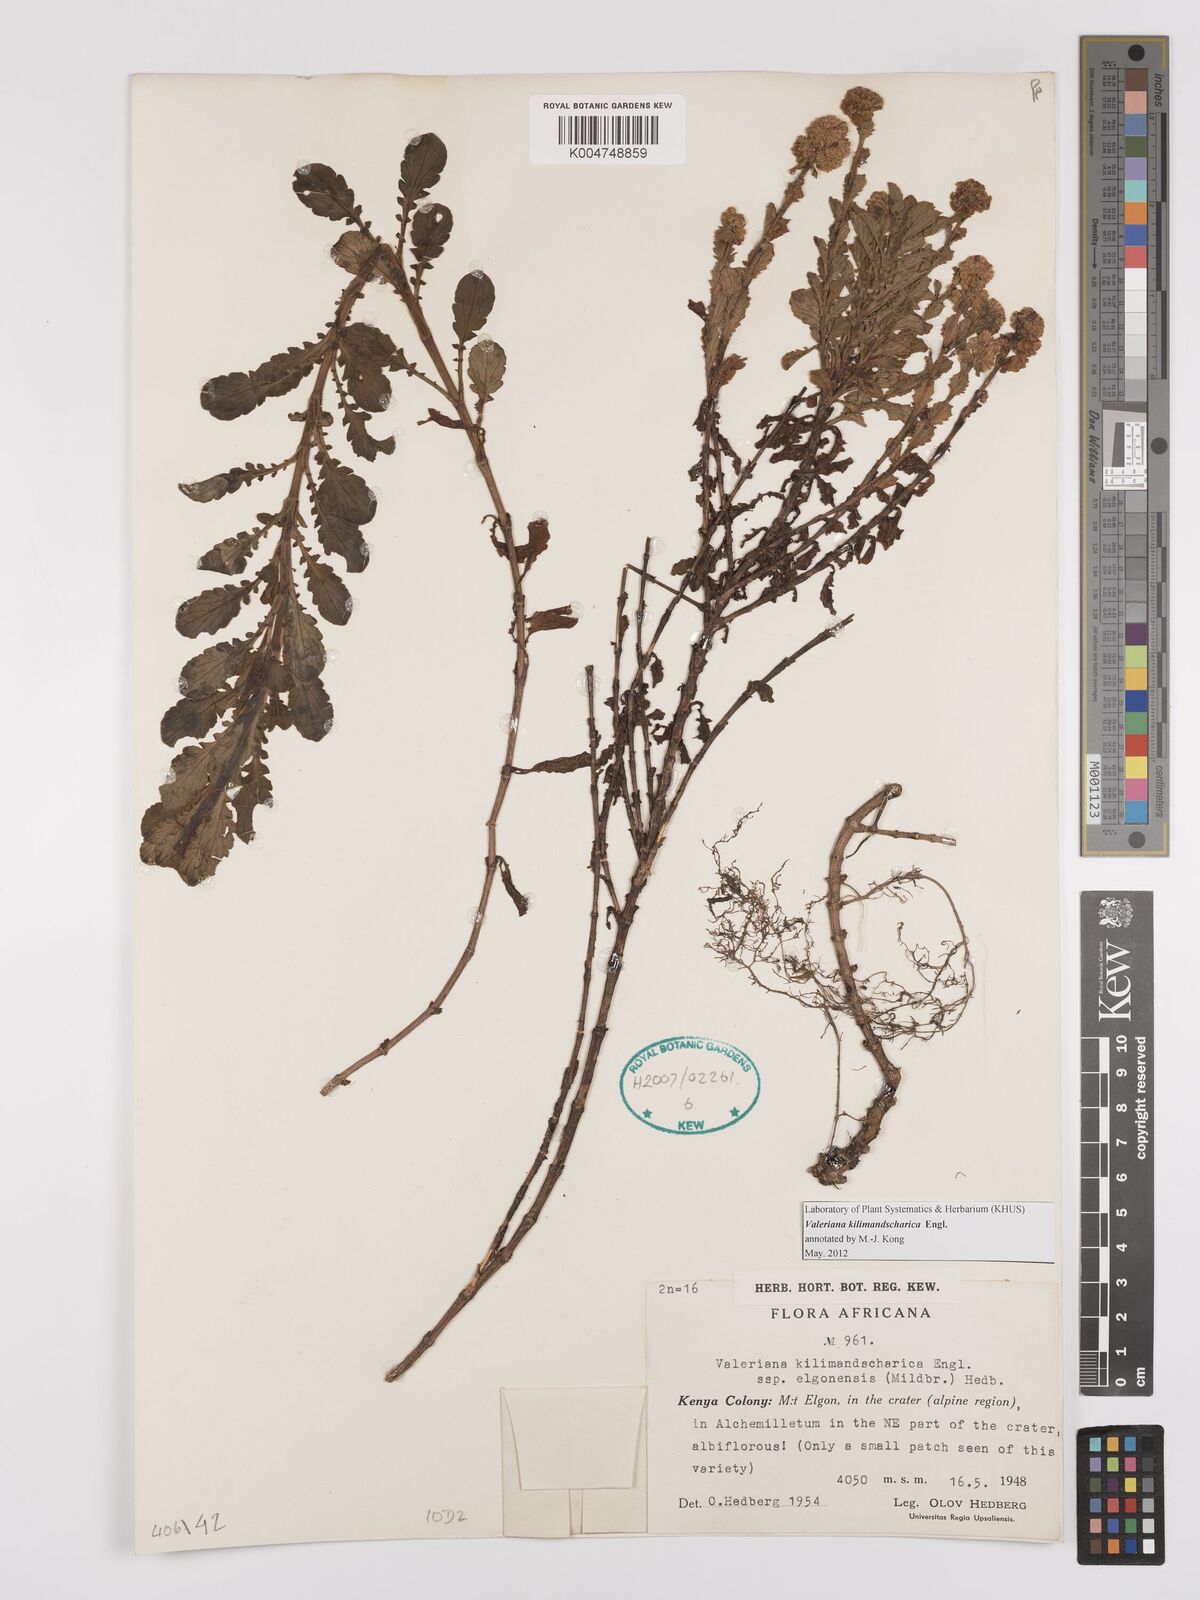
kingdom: Plantae
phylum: Tracheophyta
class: Magnoliopsida
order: Dipsacales
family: Caprifoliaceae
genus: Valeriana
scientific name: Valeriana kilimandscharica
